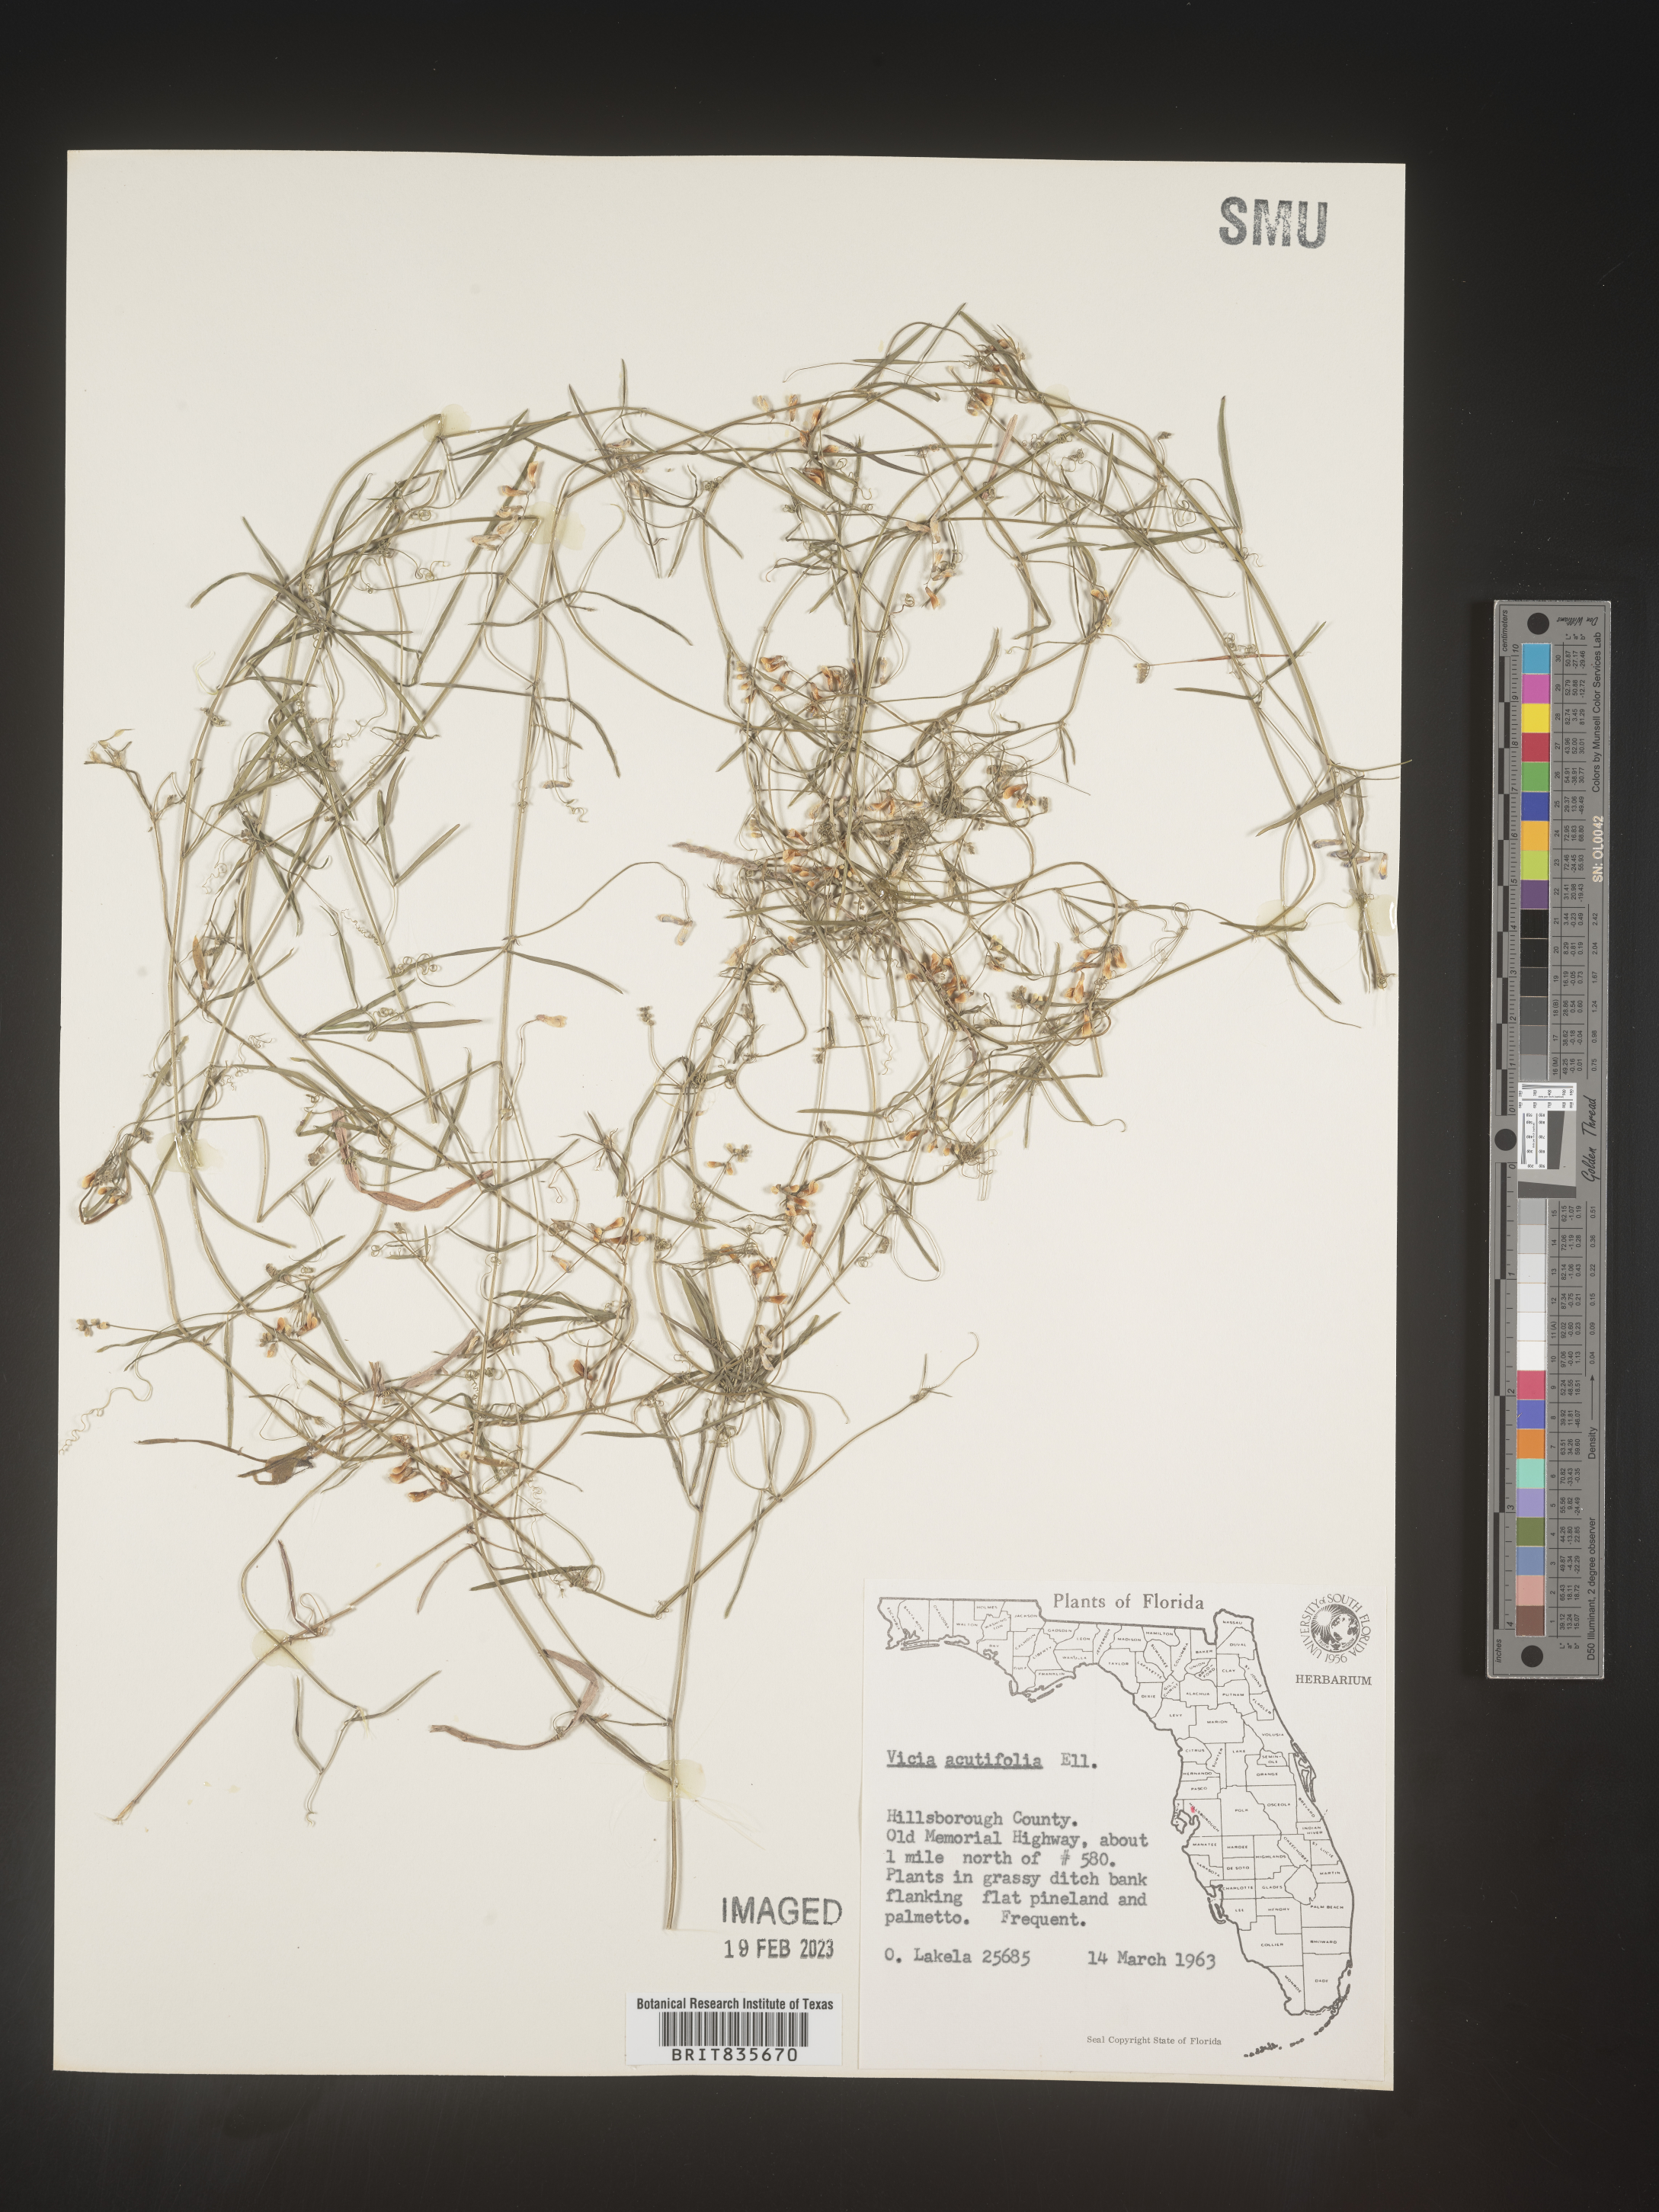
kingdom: Plantae
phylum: Tracheophyta
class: Magnoliopsida
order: Fabales
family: Fabaceae
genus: Vicia
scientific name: Vicia acutifolia
